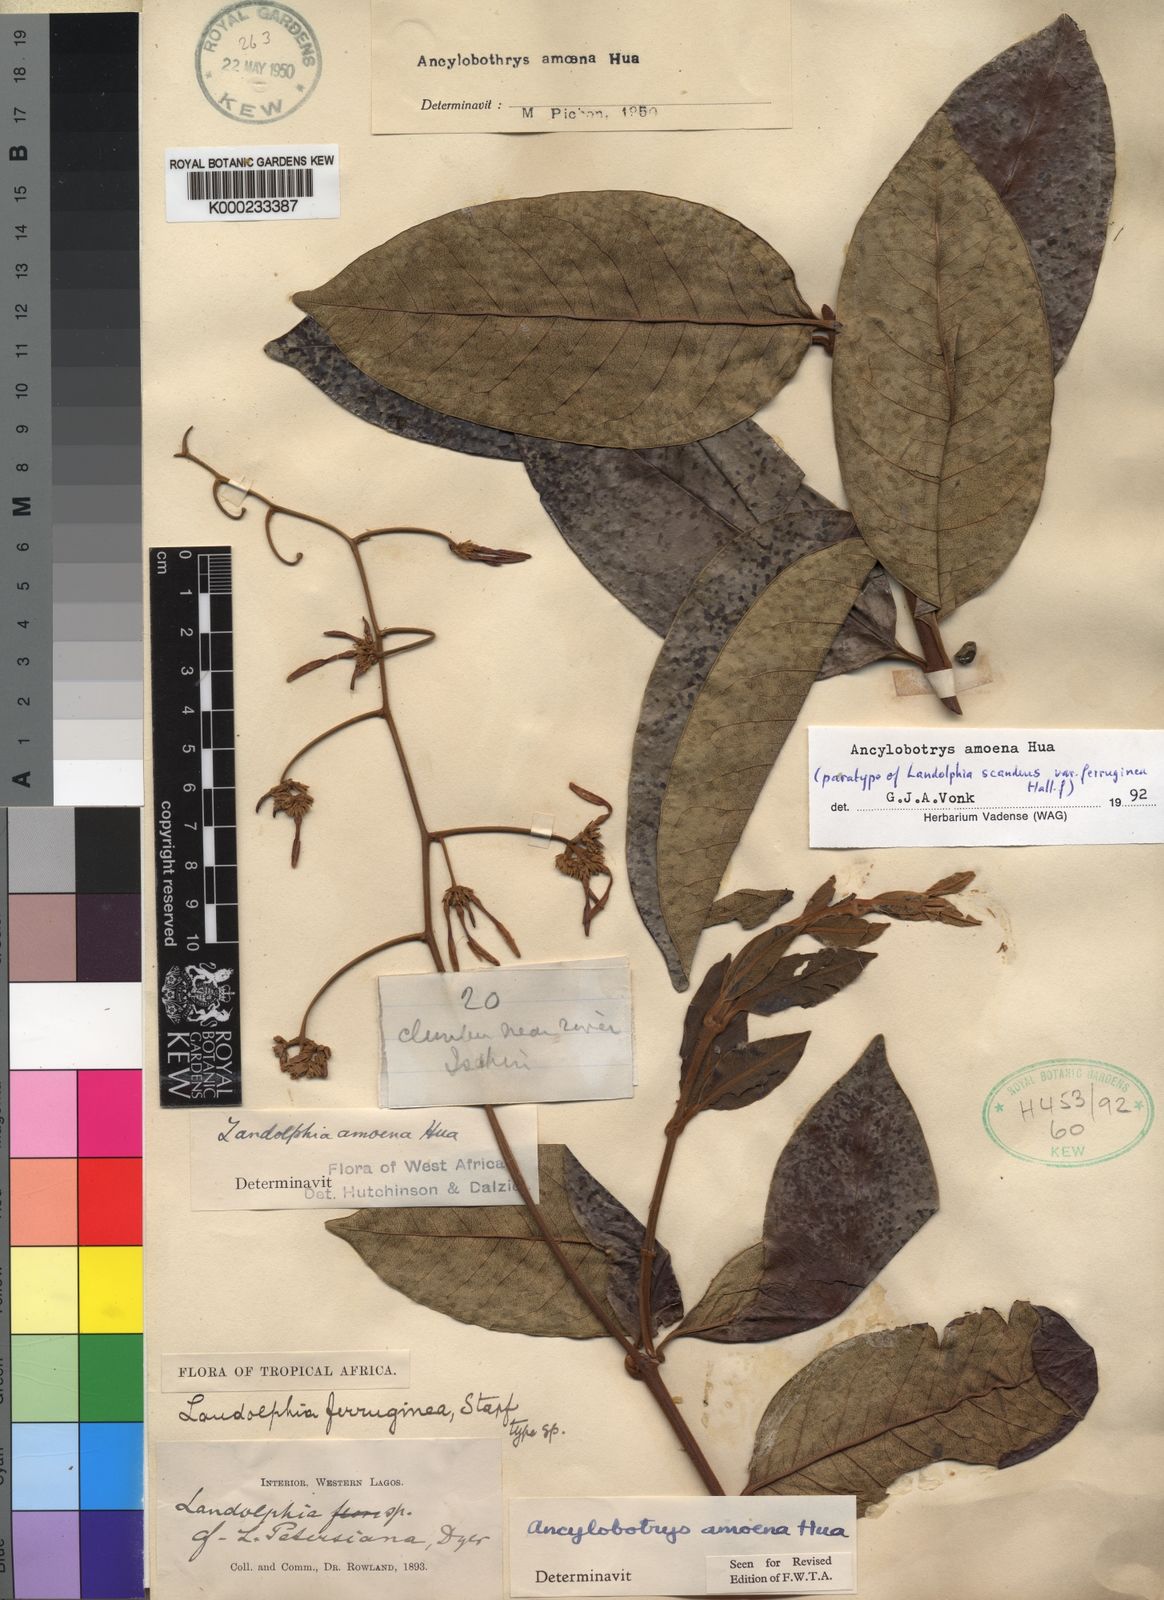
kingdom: Plantae
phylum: Tracheophyta
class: Magnoliopsida
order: Gentianales
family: Apocynaceae
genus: Ancylobothrys
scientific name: Ancylobothrys amoena
